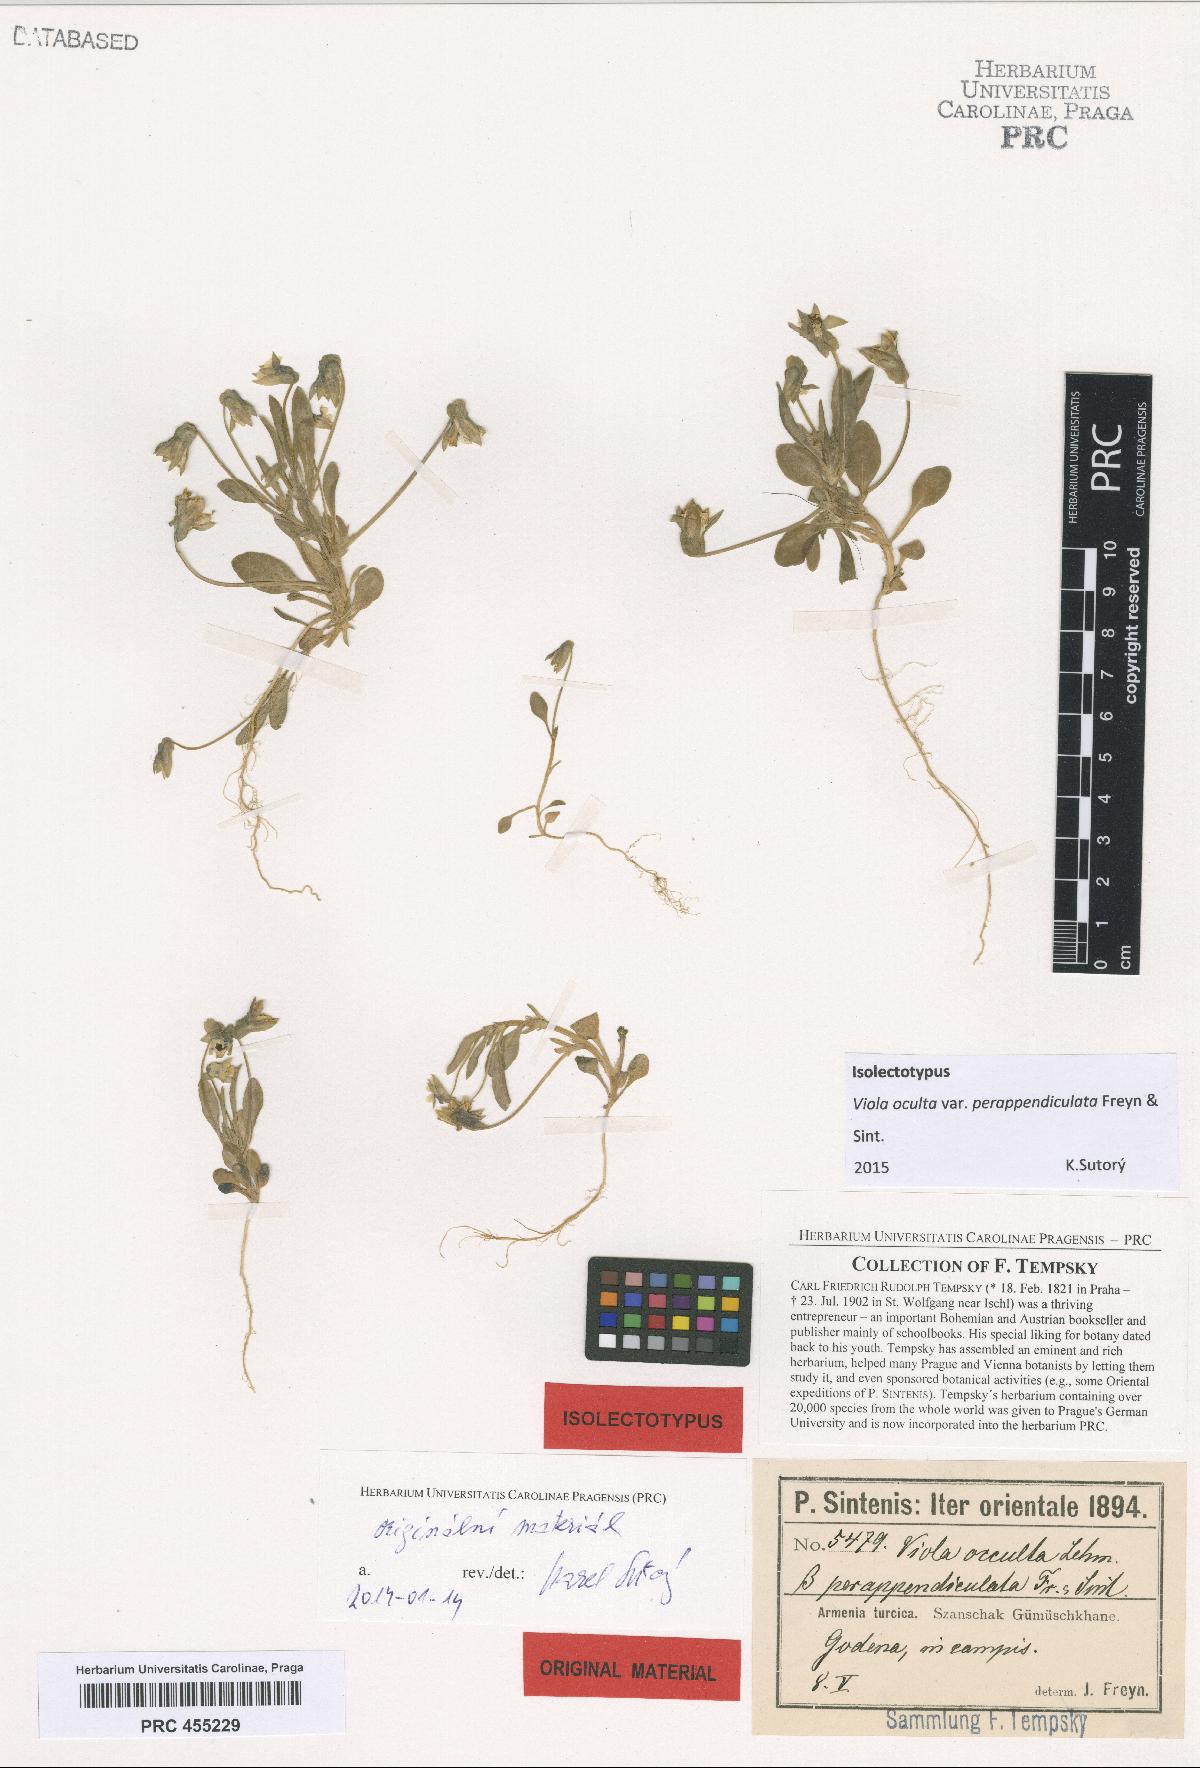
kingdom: Plantae
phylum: Tracheophyta
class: Magnoliopsida
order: Malpighiales
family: Violaceae
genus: Viola
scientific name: Viola occulta
